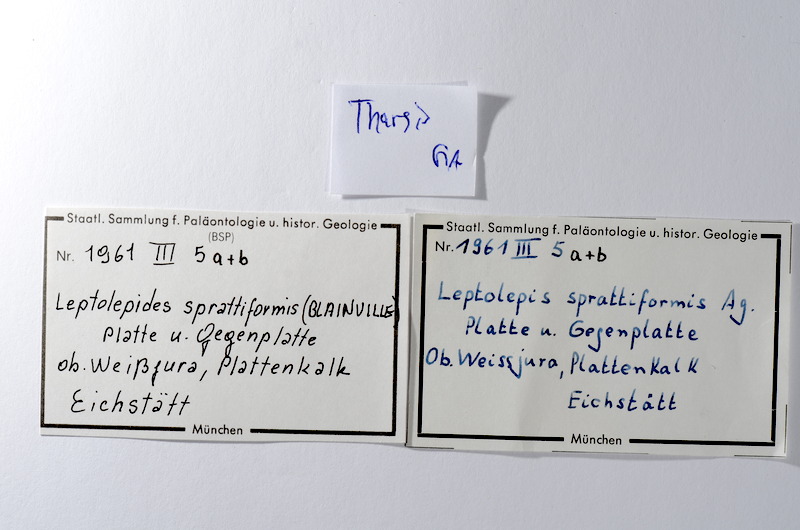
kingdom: Animalia
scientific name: Animalia
